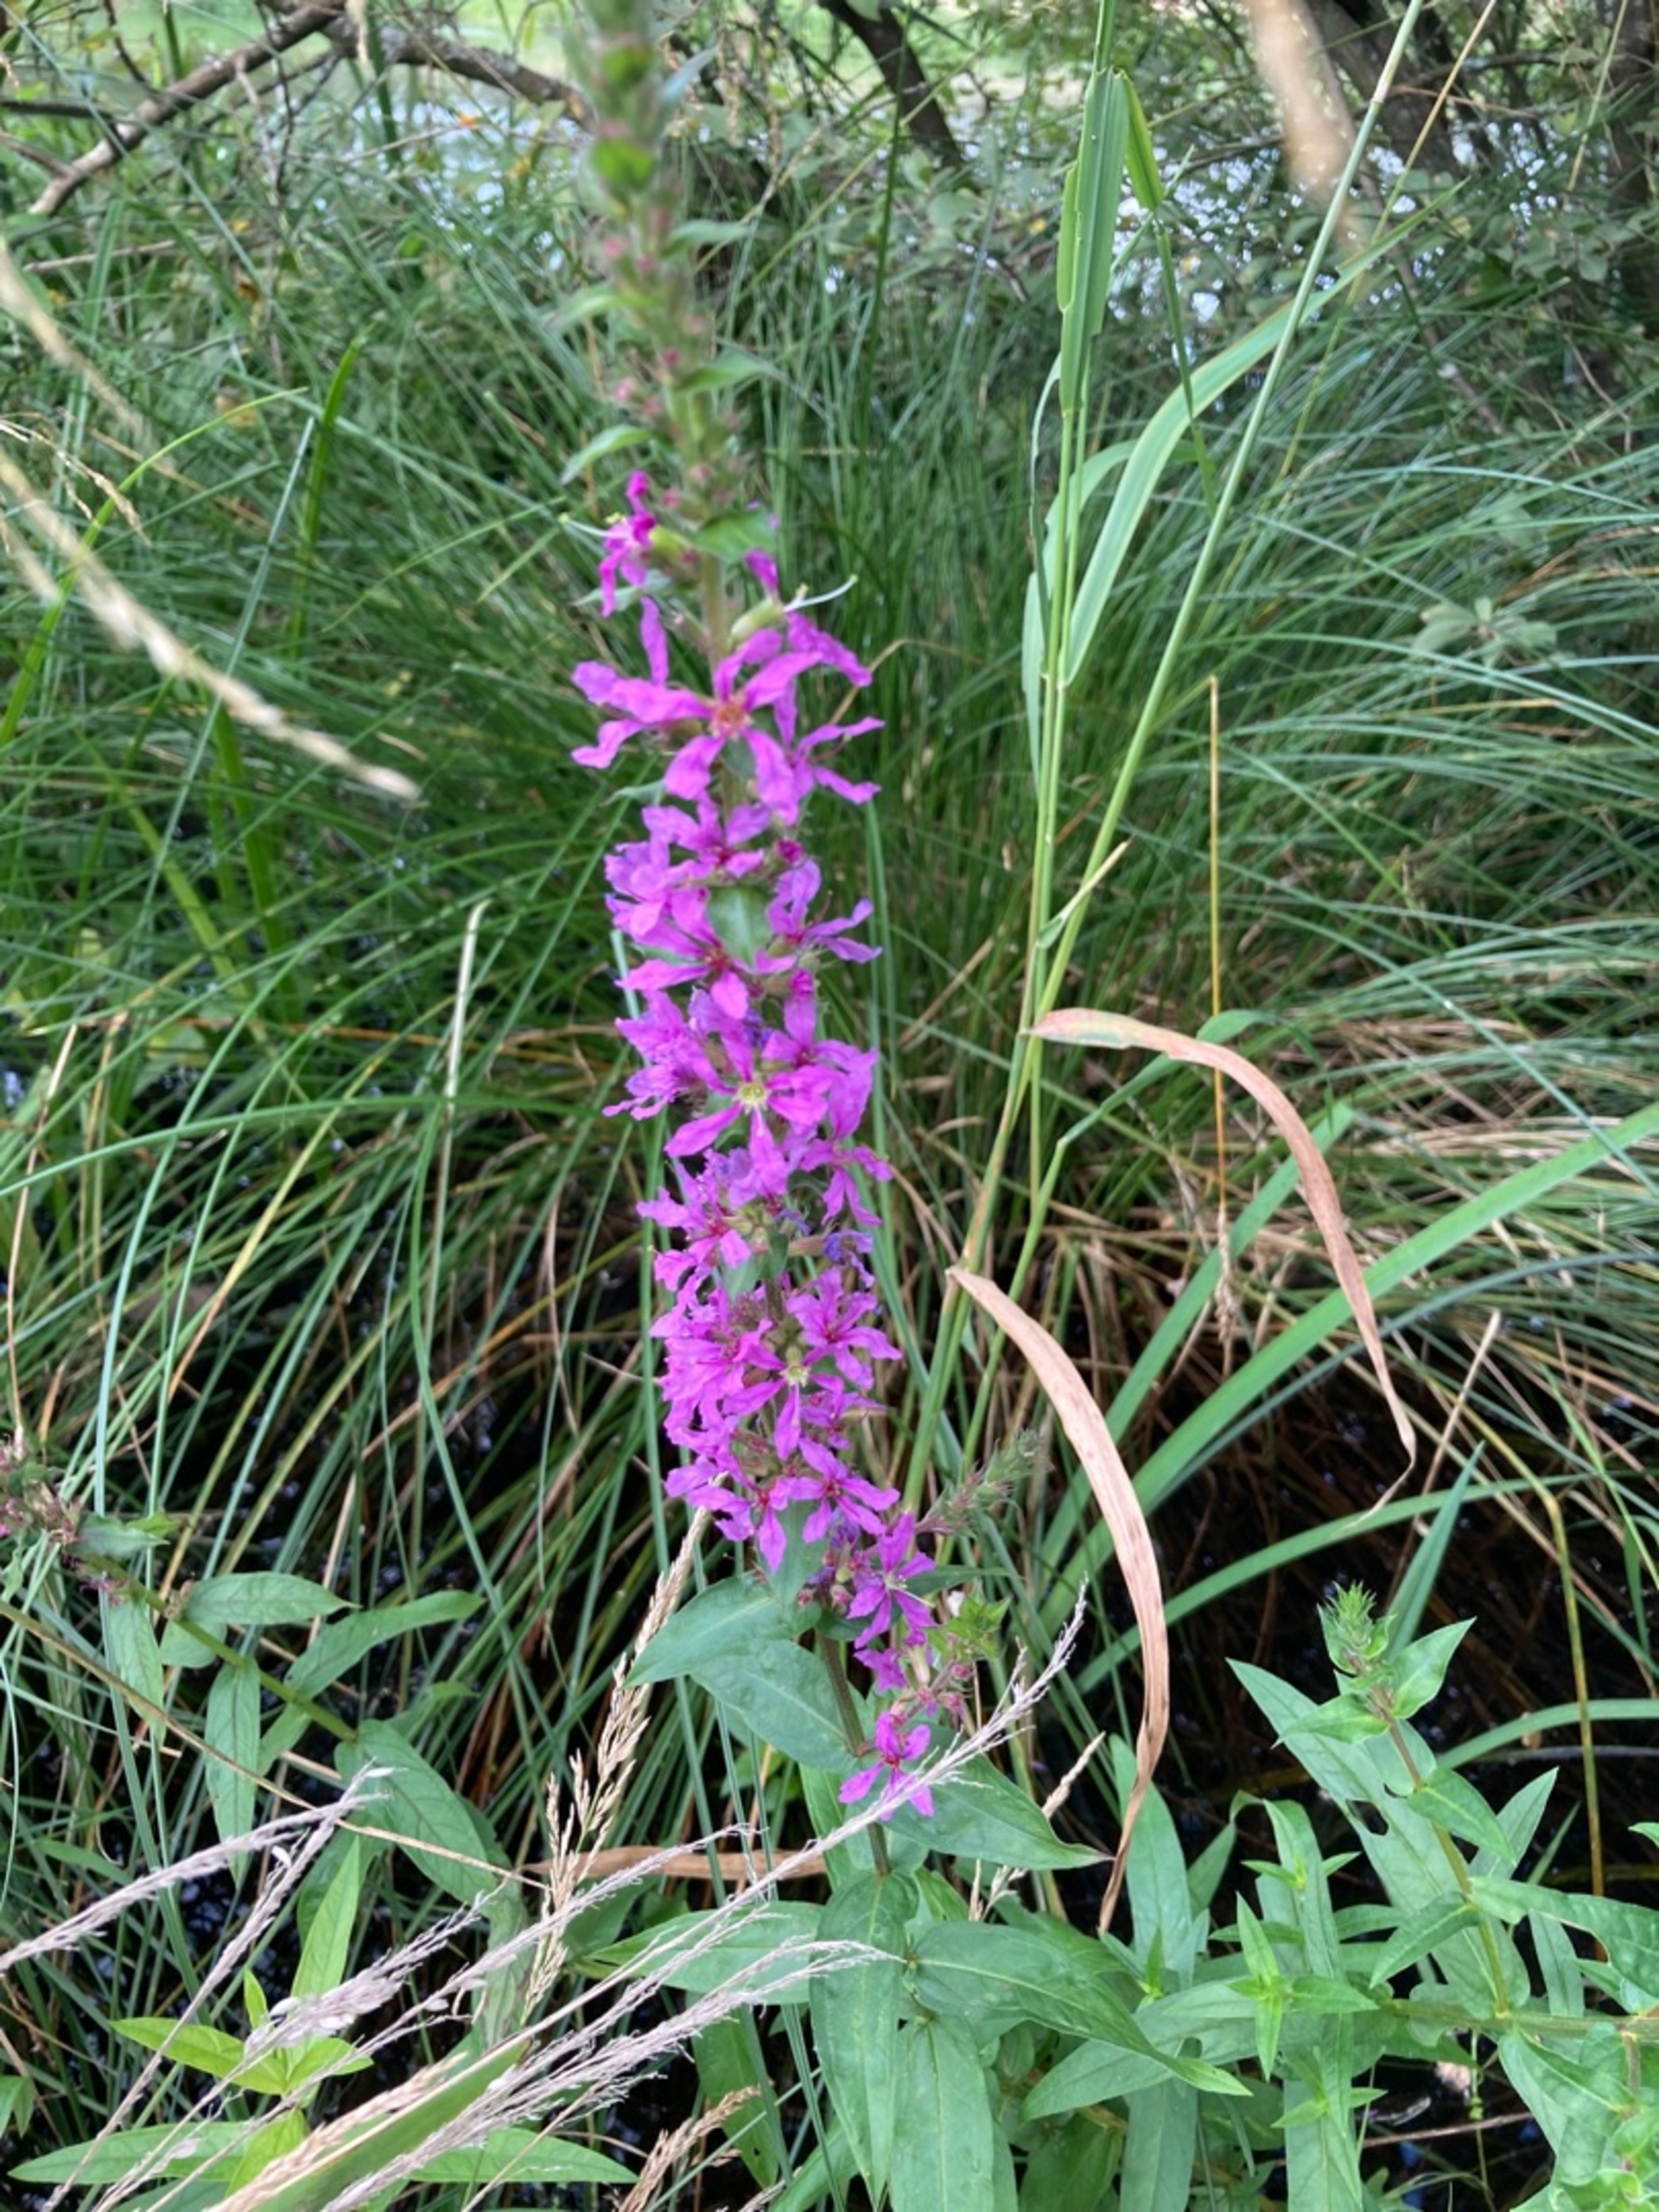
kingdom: Plantae
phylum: Tracheophyta
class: Magnoliopsida
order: Myrtales
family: Lythraceae
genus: Lythrum
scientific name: Lythrum salicaria
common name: Kattehale
